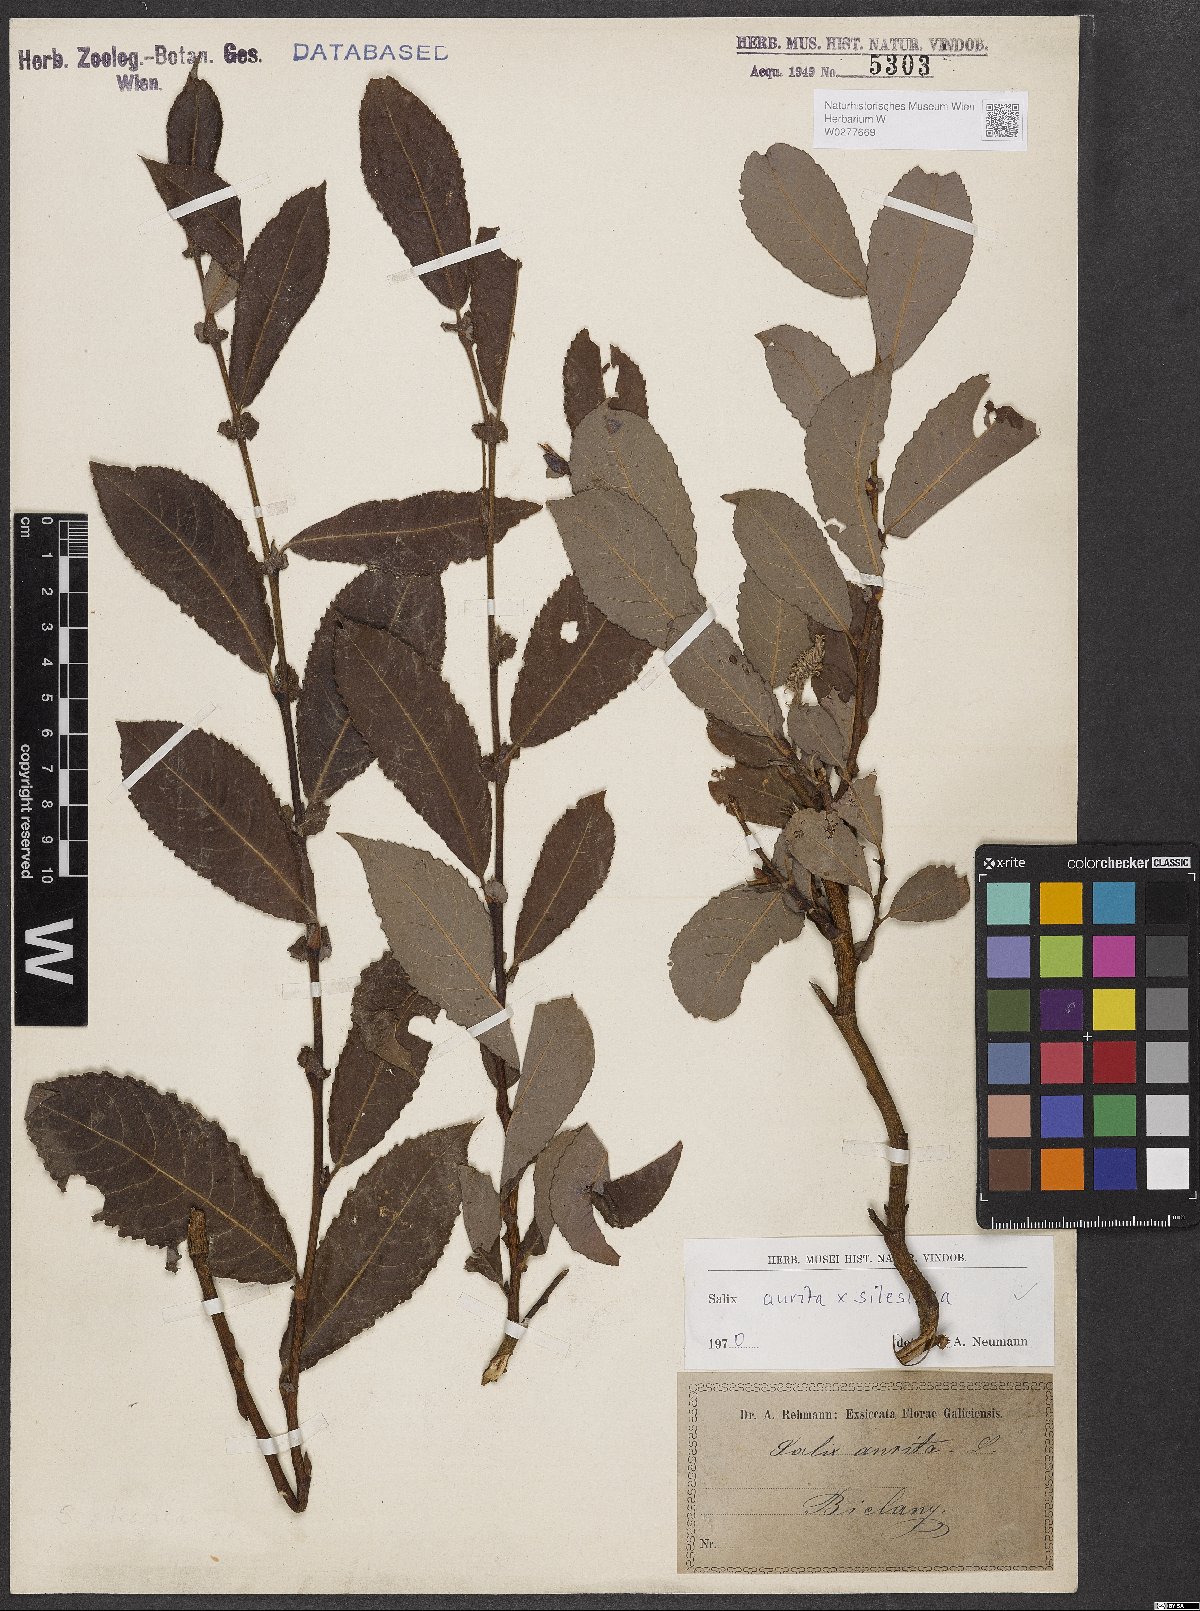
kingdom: Plantae
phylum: Tracheophyta
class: Magnoliopsida
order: Malpighiales
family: Salicaceae
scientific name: Salicaceae
